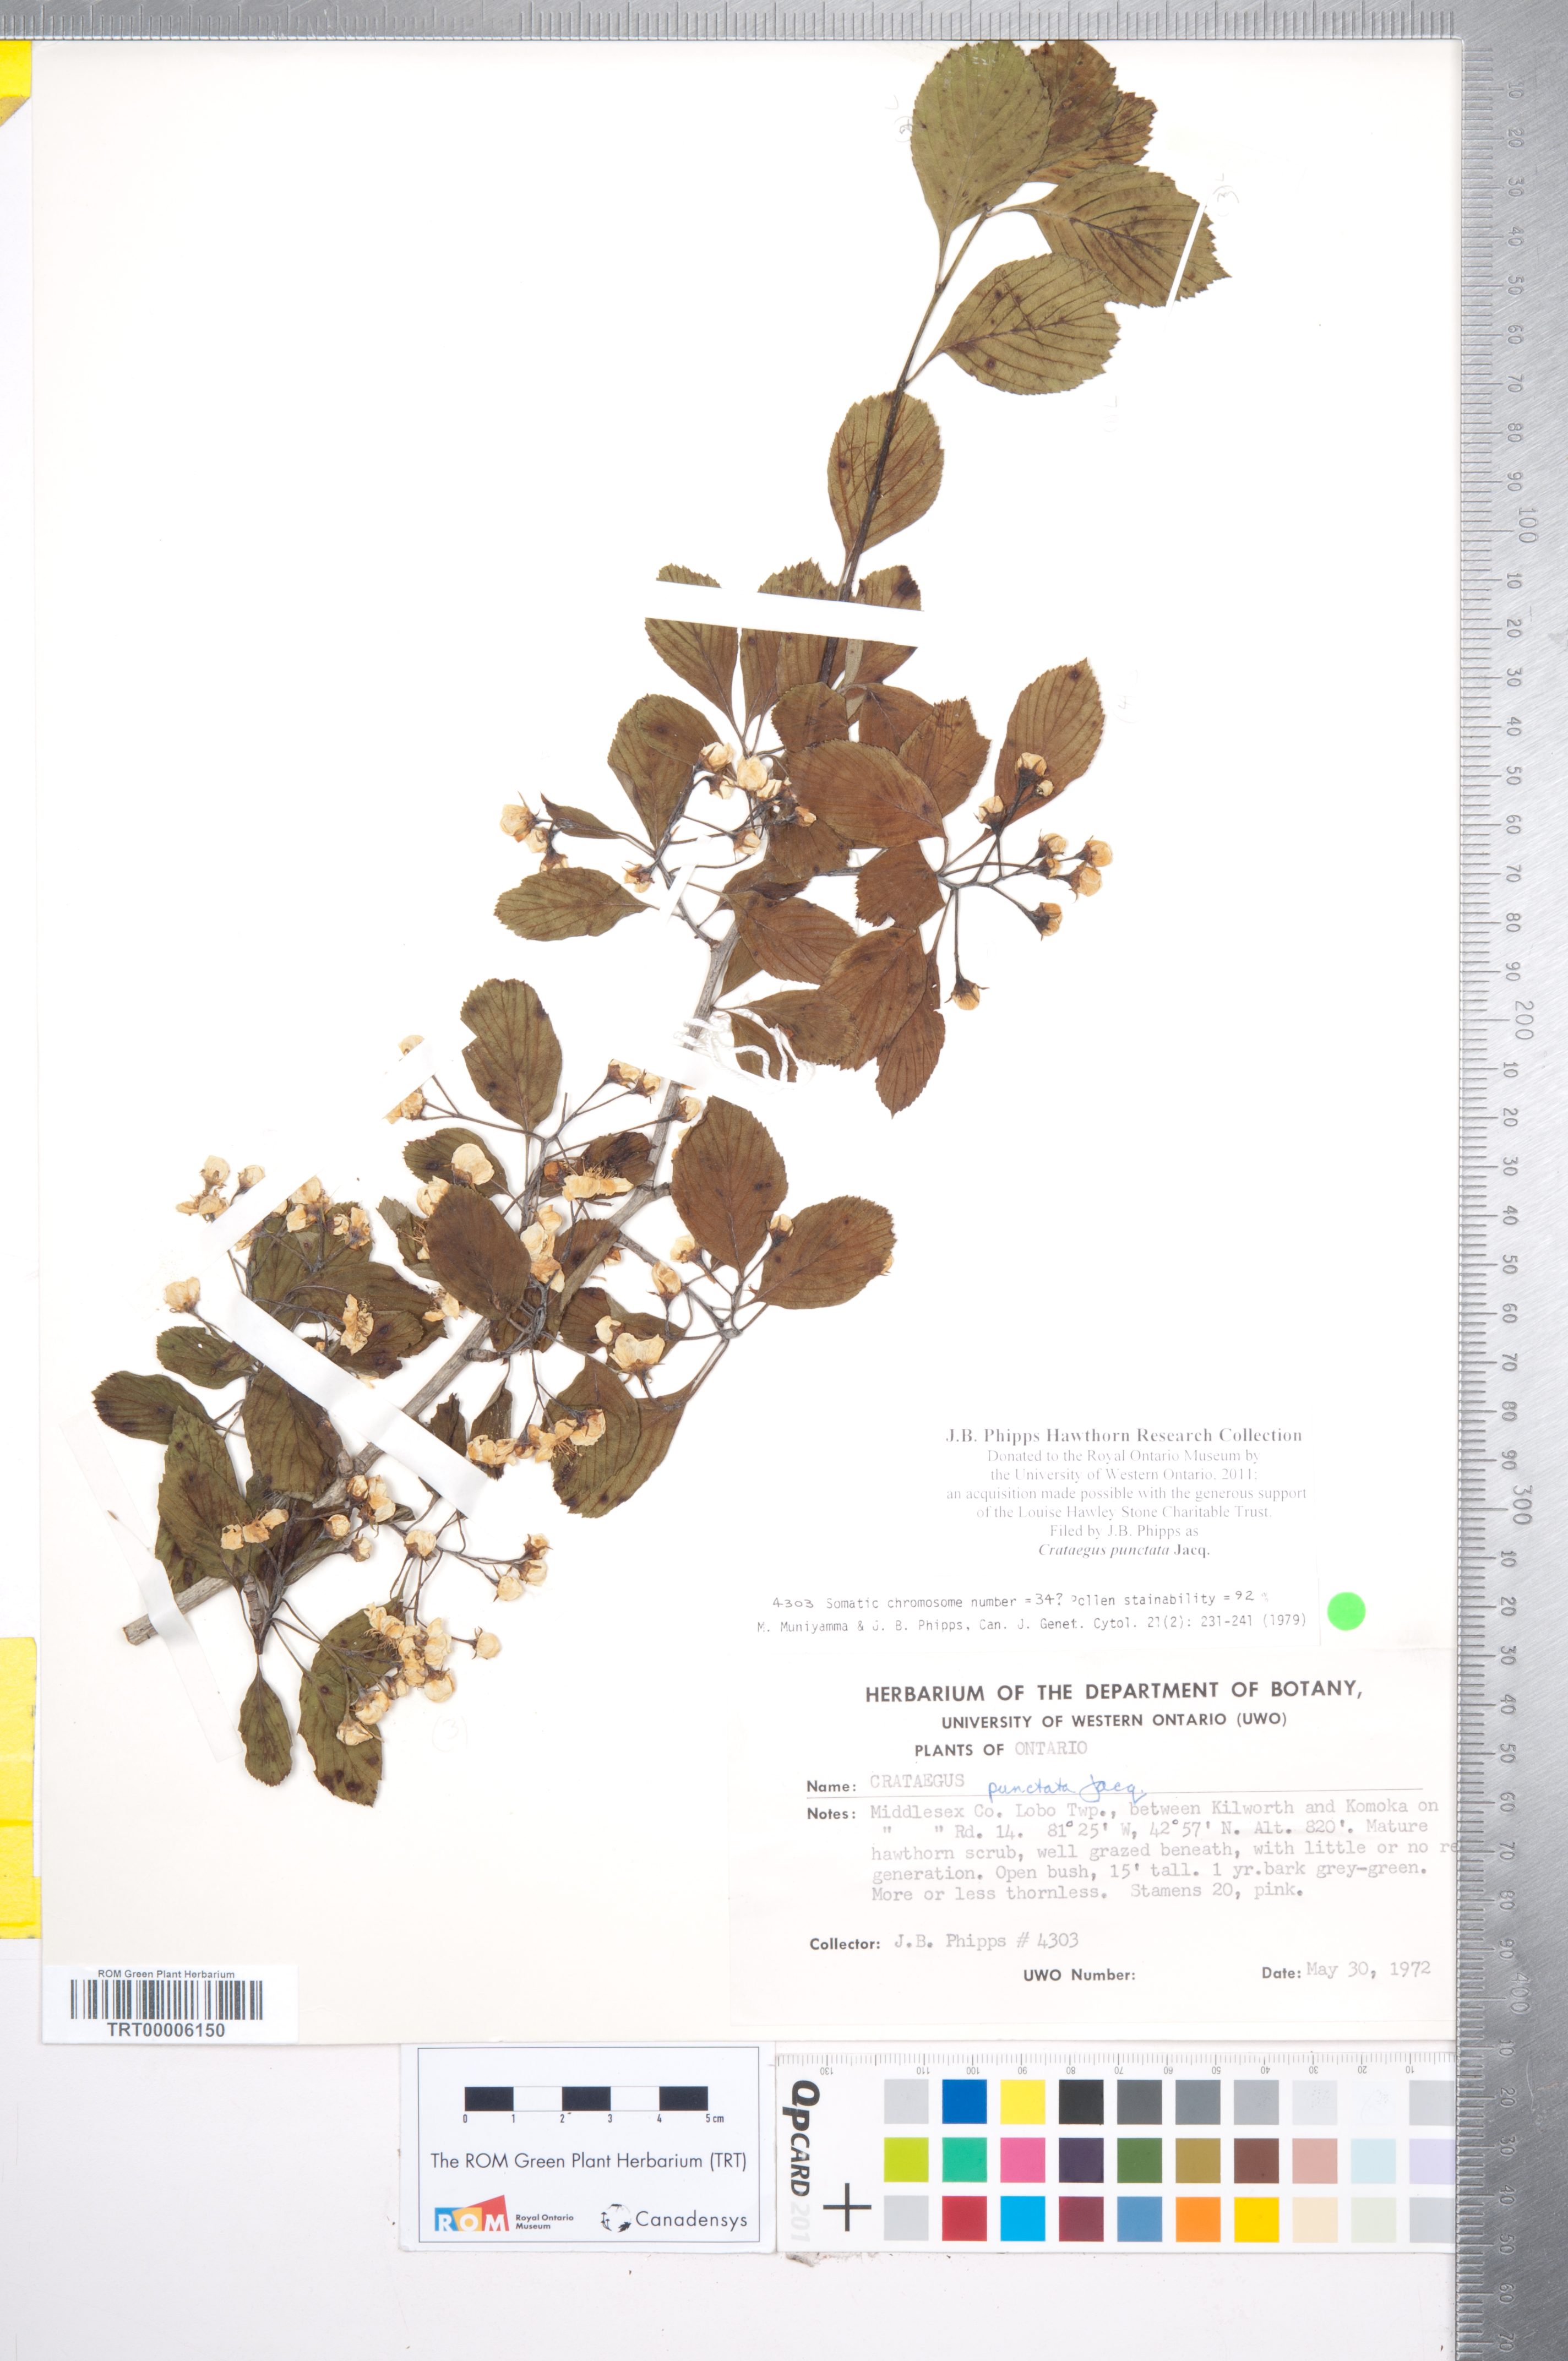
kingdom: Plantae
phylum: Tracheophyta
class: Magnoliopsida
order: Rosales
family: Rosaceae
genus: Crataegus
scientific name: Crataegus punctata
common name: Dotted hawthorn
